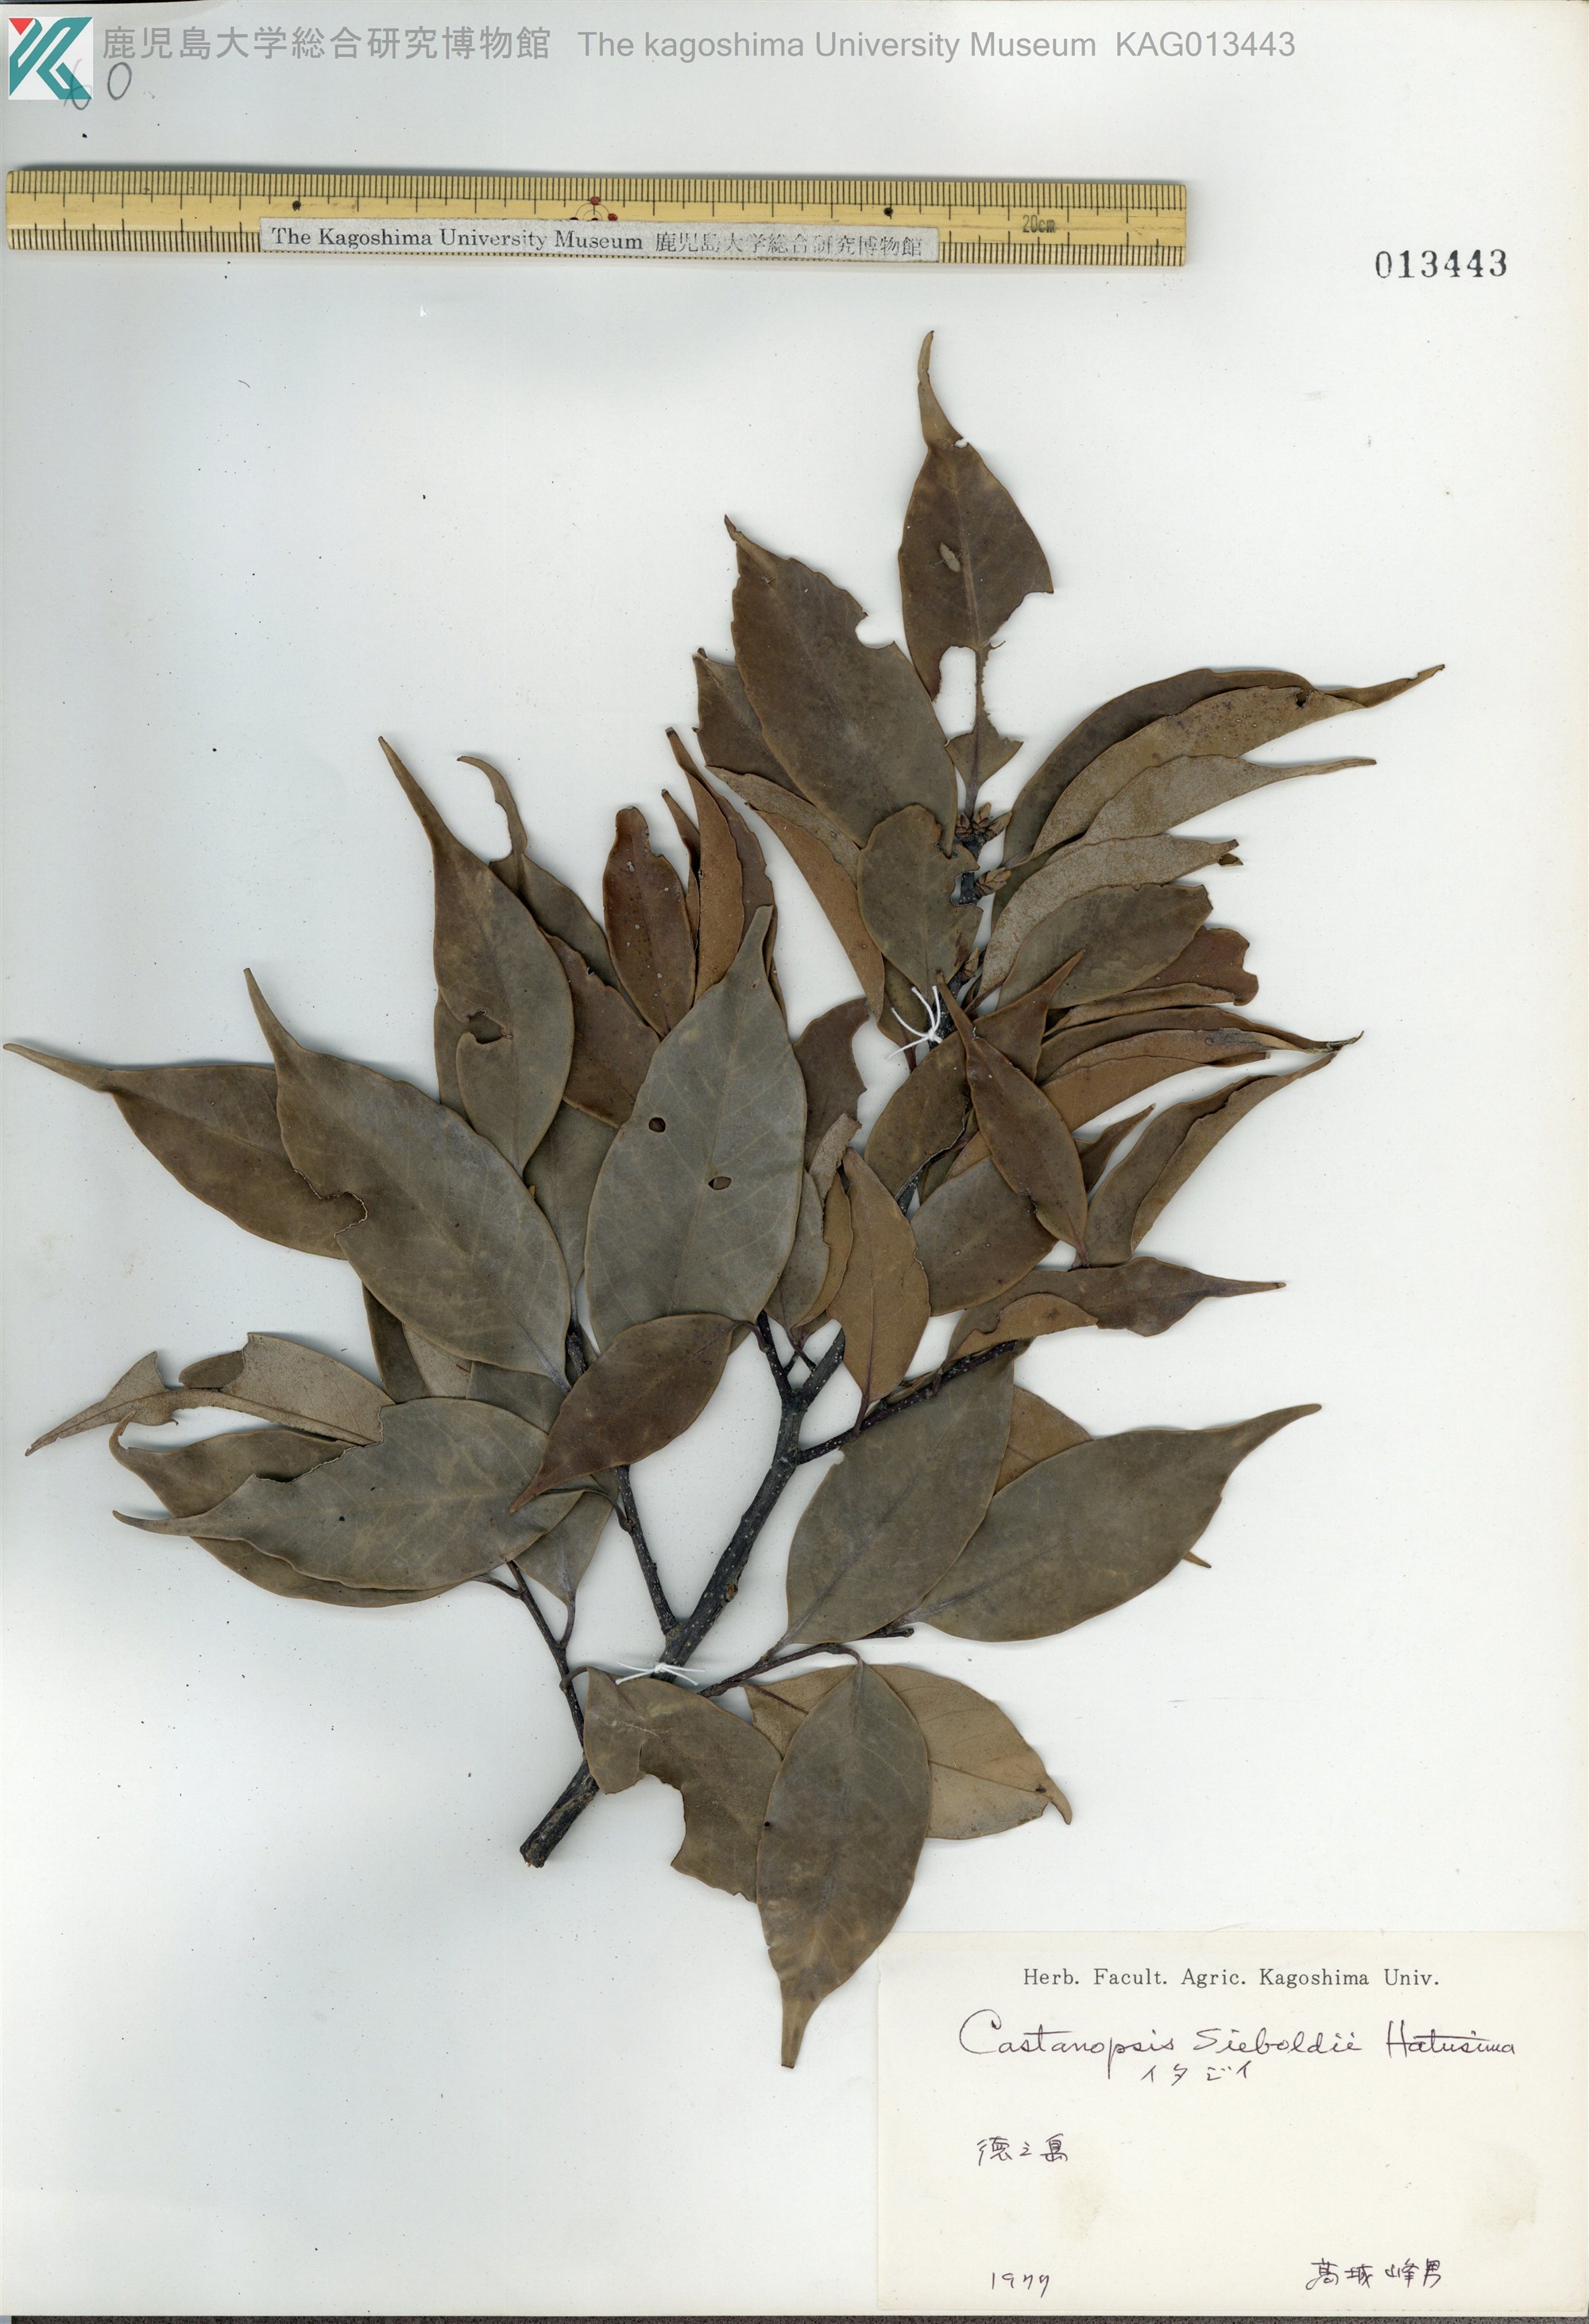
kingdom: Plantae
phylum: Tracheophyta
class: Magnoliopsida
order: Fagales
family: Fagaceae
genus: Castanopsis
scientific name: Castanopsis sieboldii
